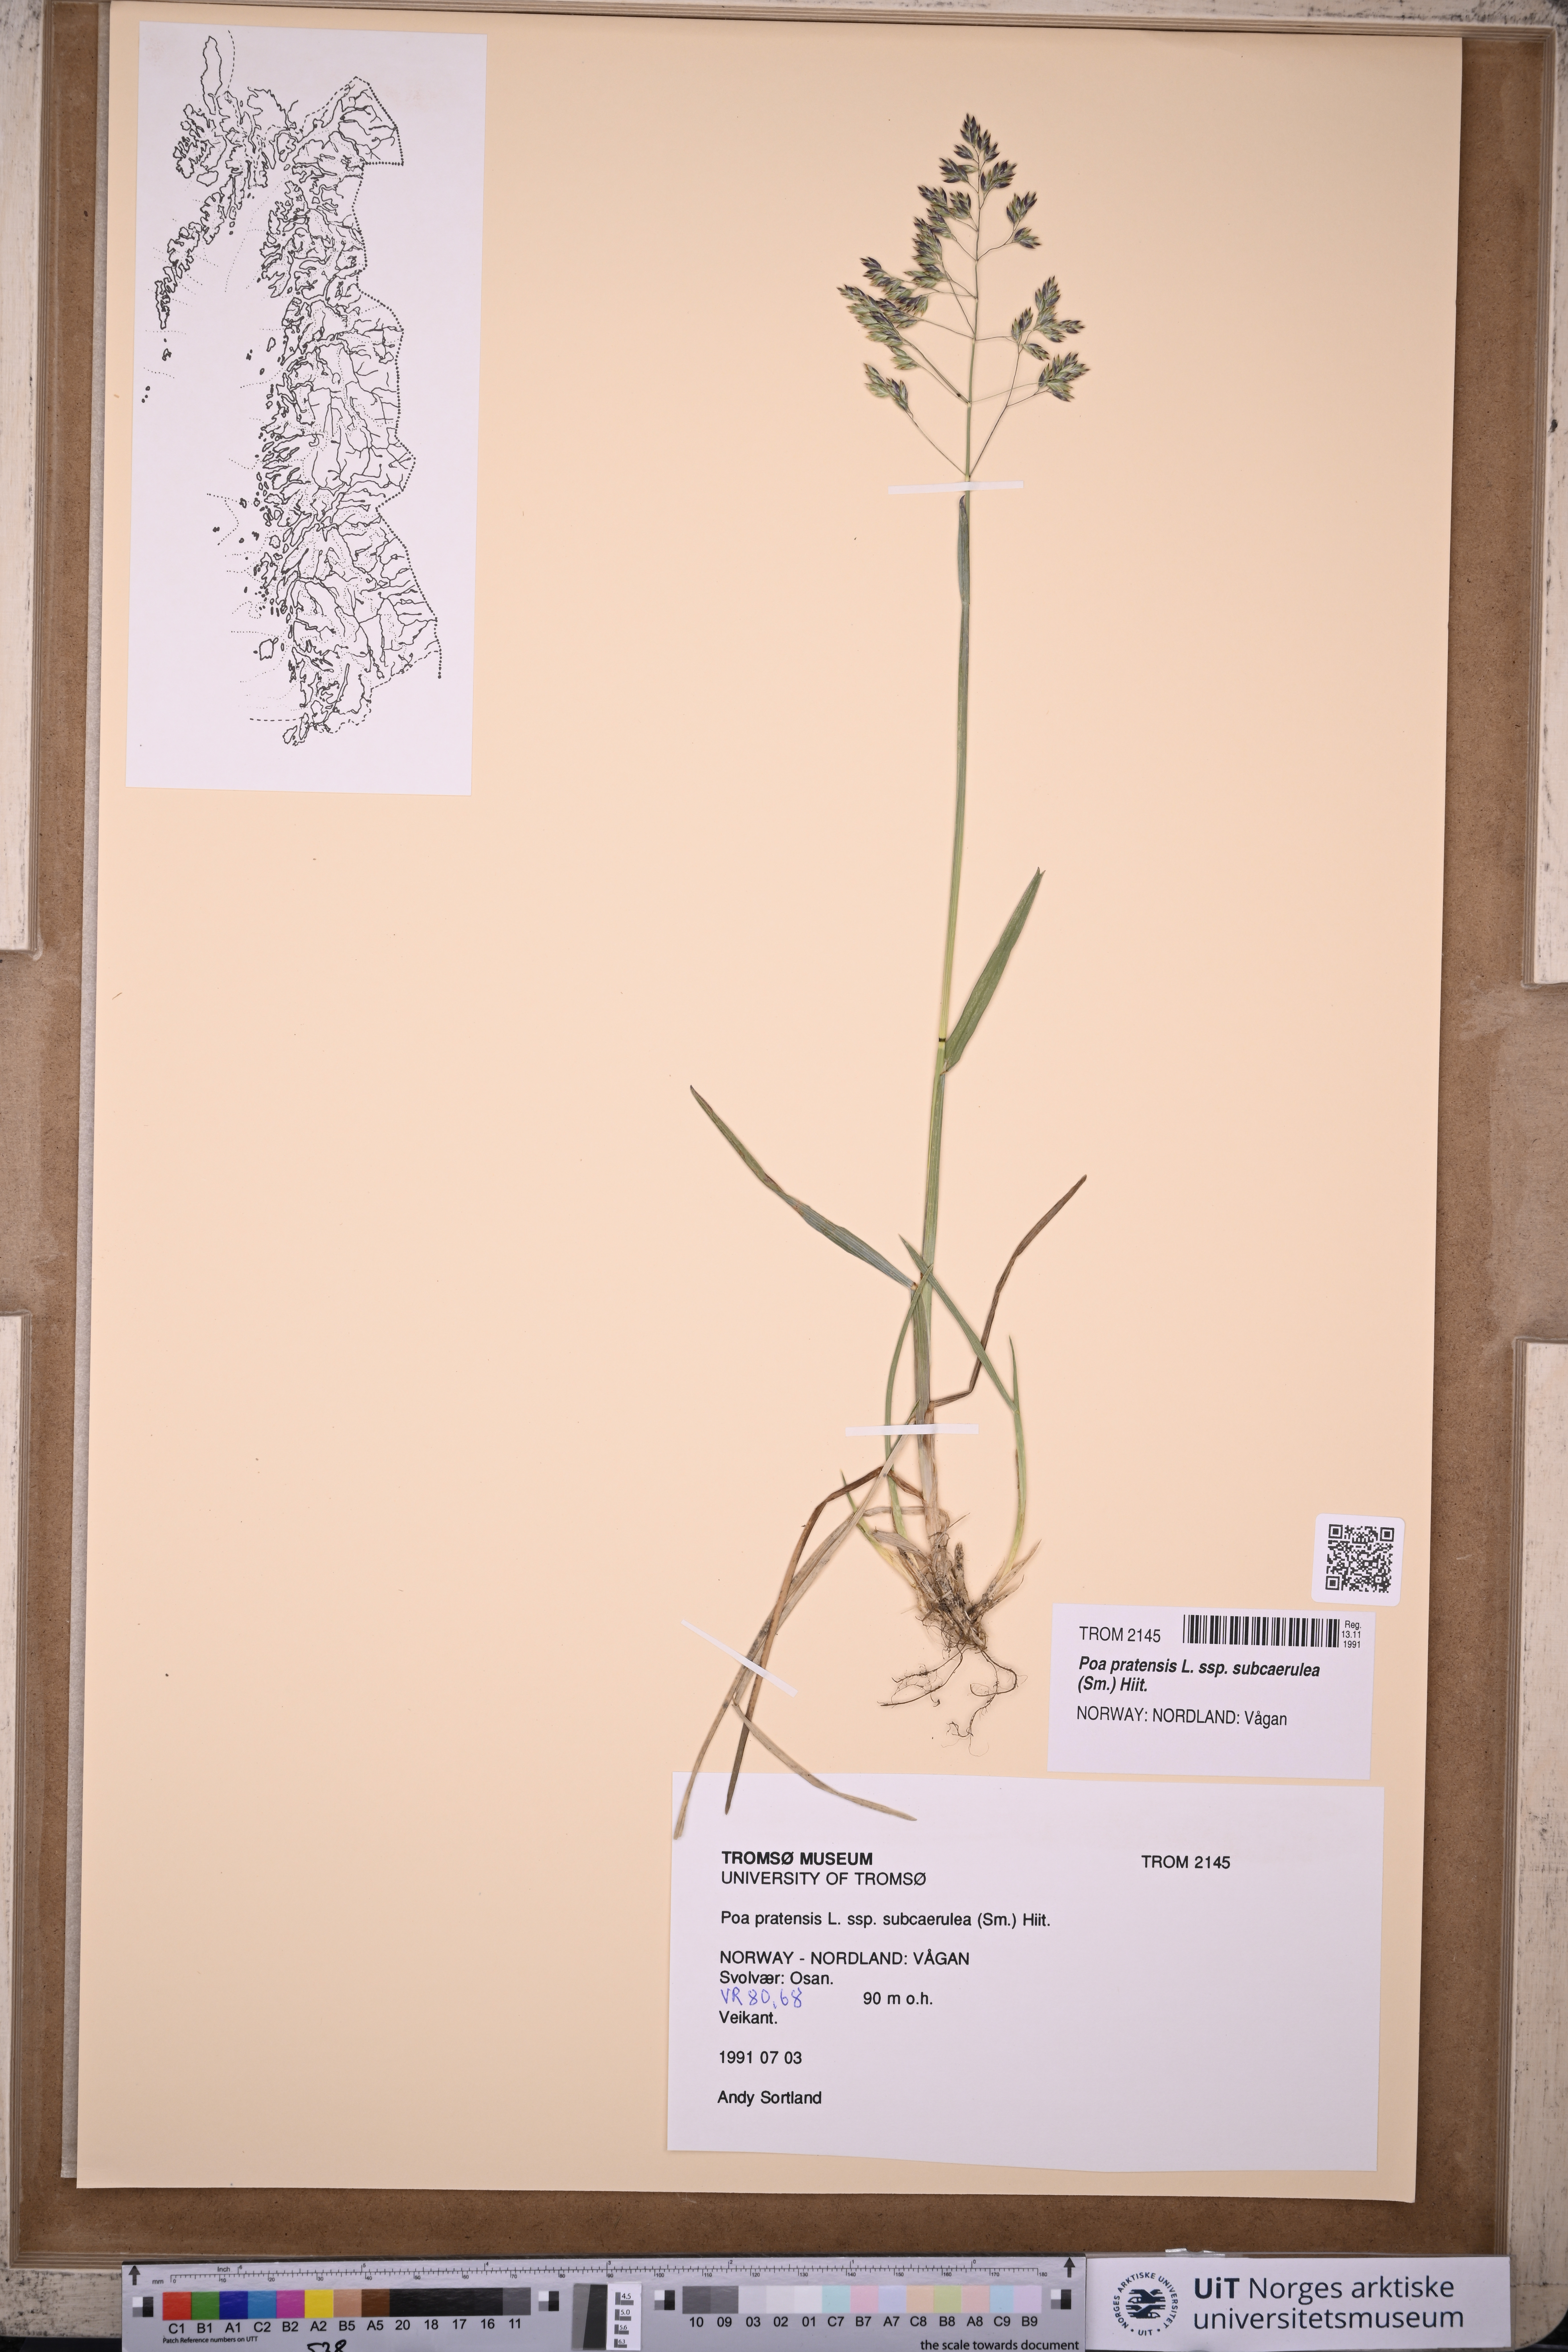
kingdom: Plantae
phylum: Tracheophyta
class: Liliopsida
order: Poales
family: Poaceae
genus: Poa
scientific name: Poa humilis
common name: Spreading meadow-grass
